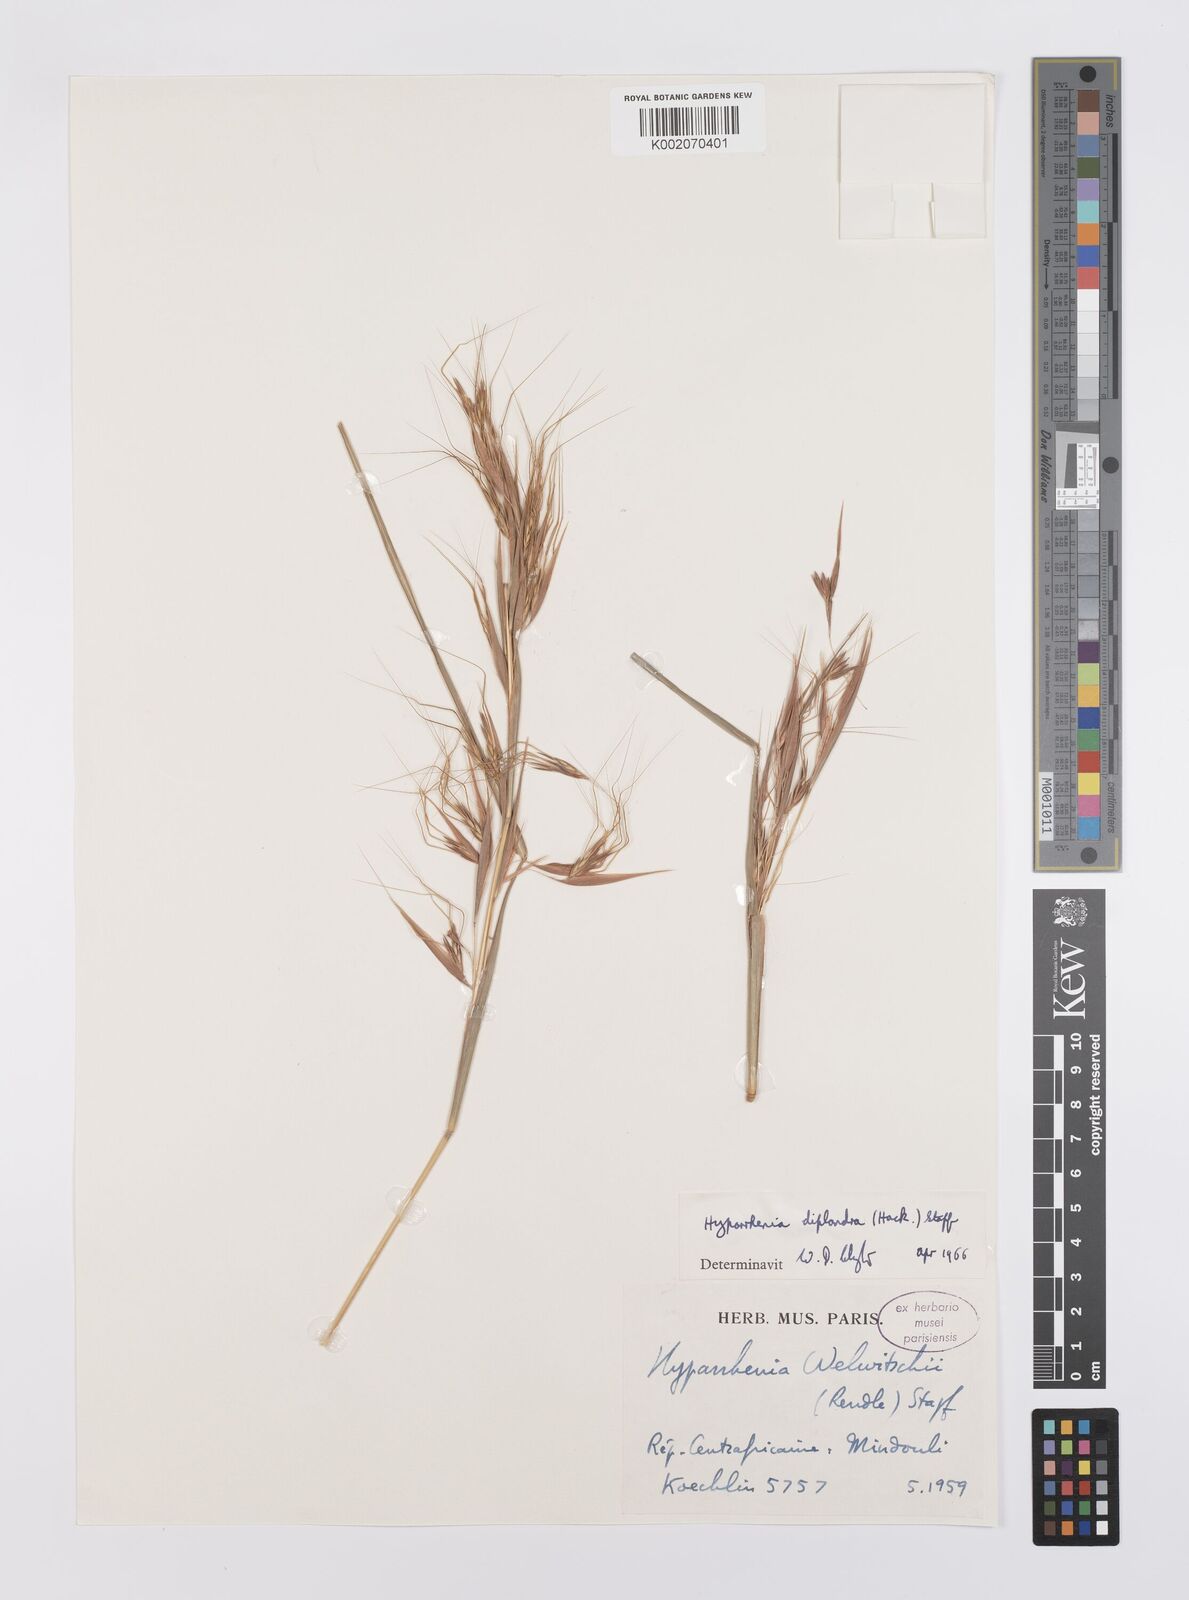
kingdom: Plantae
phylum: Tracheophyta
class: Liliopsida
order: Poales
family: Poaceae
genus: Hyparrhenia
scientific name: Hyparrhenia diplandra
